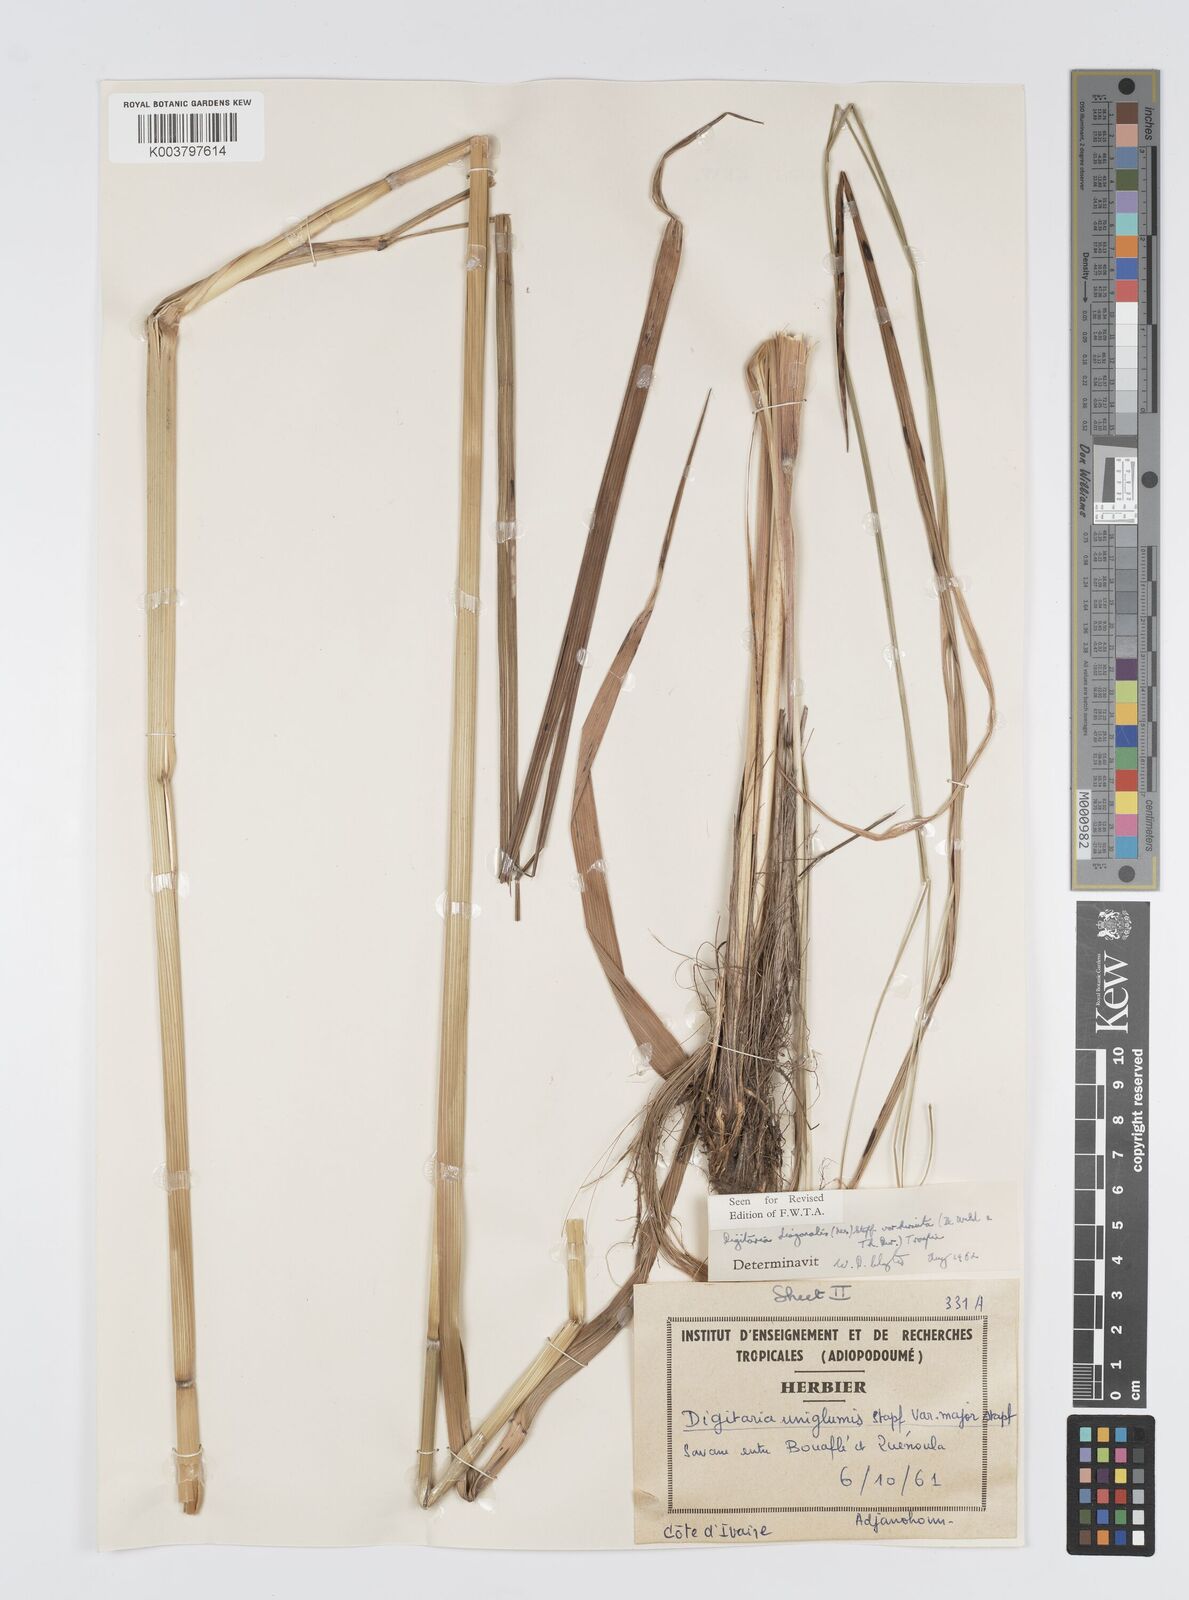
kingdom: Plantae
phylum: Tracheophyta
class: Liliopsida
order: Poales
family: Poaceae
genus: Digitaria
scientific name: Digitaria diagonalis
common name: Brown-seed finger grass
